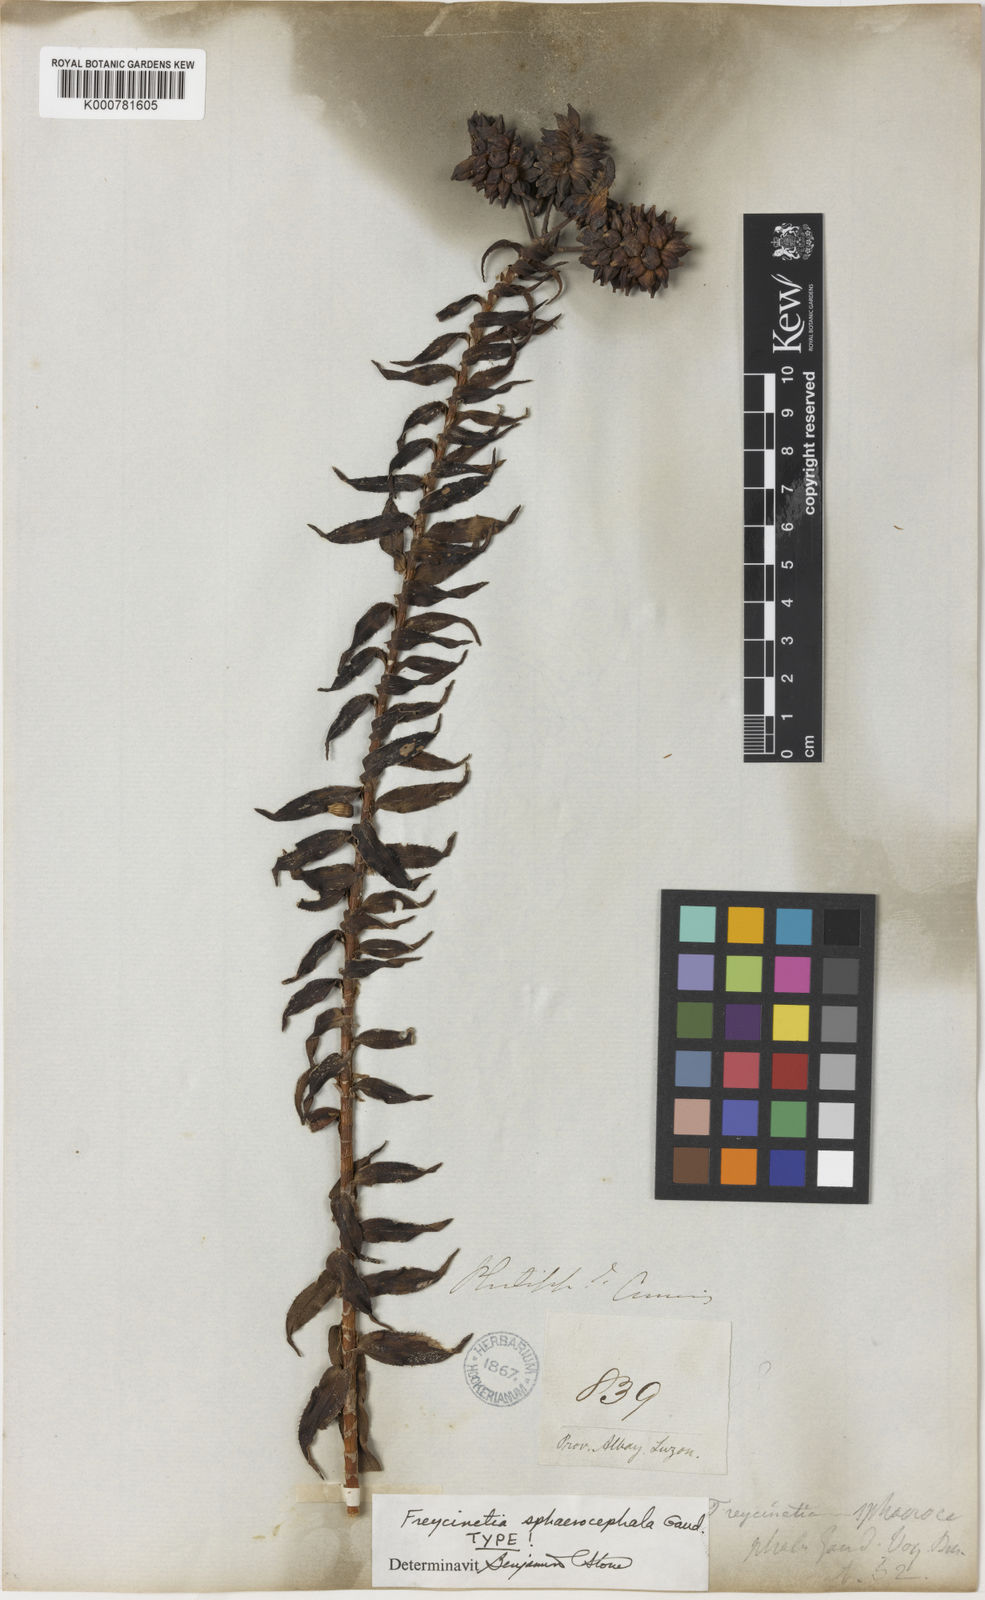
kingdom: Plantae
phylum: Tracheophyta
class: Liliopsida
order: Pandanales
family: Pandanaceae
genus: Freycinetia
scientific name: Freycinetia sphaerocephala
